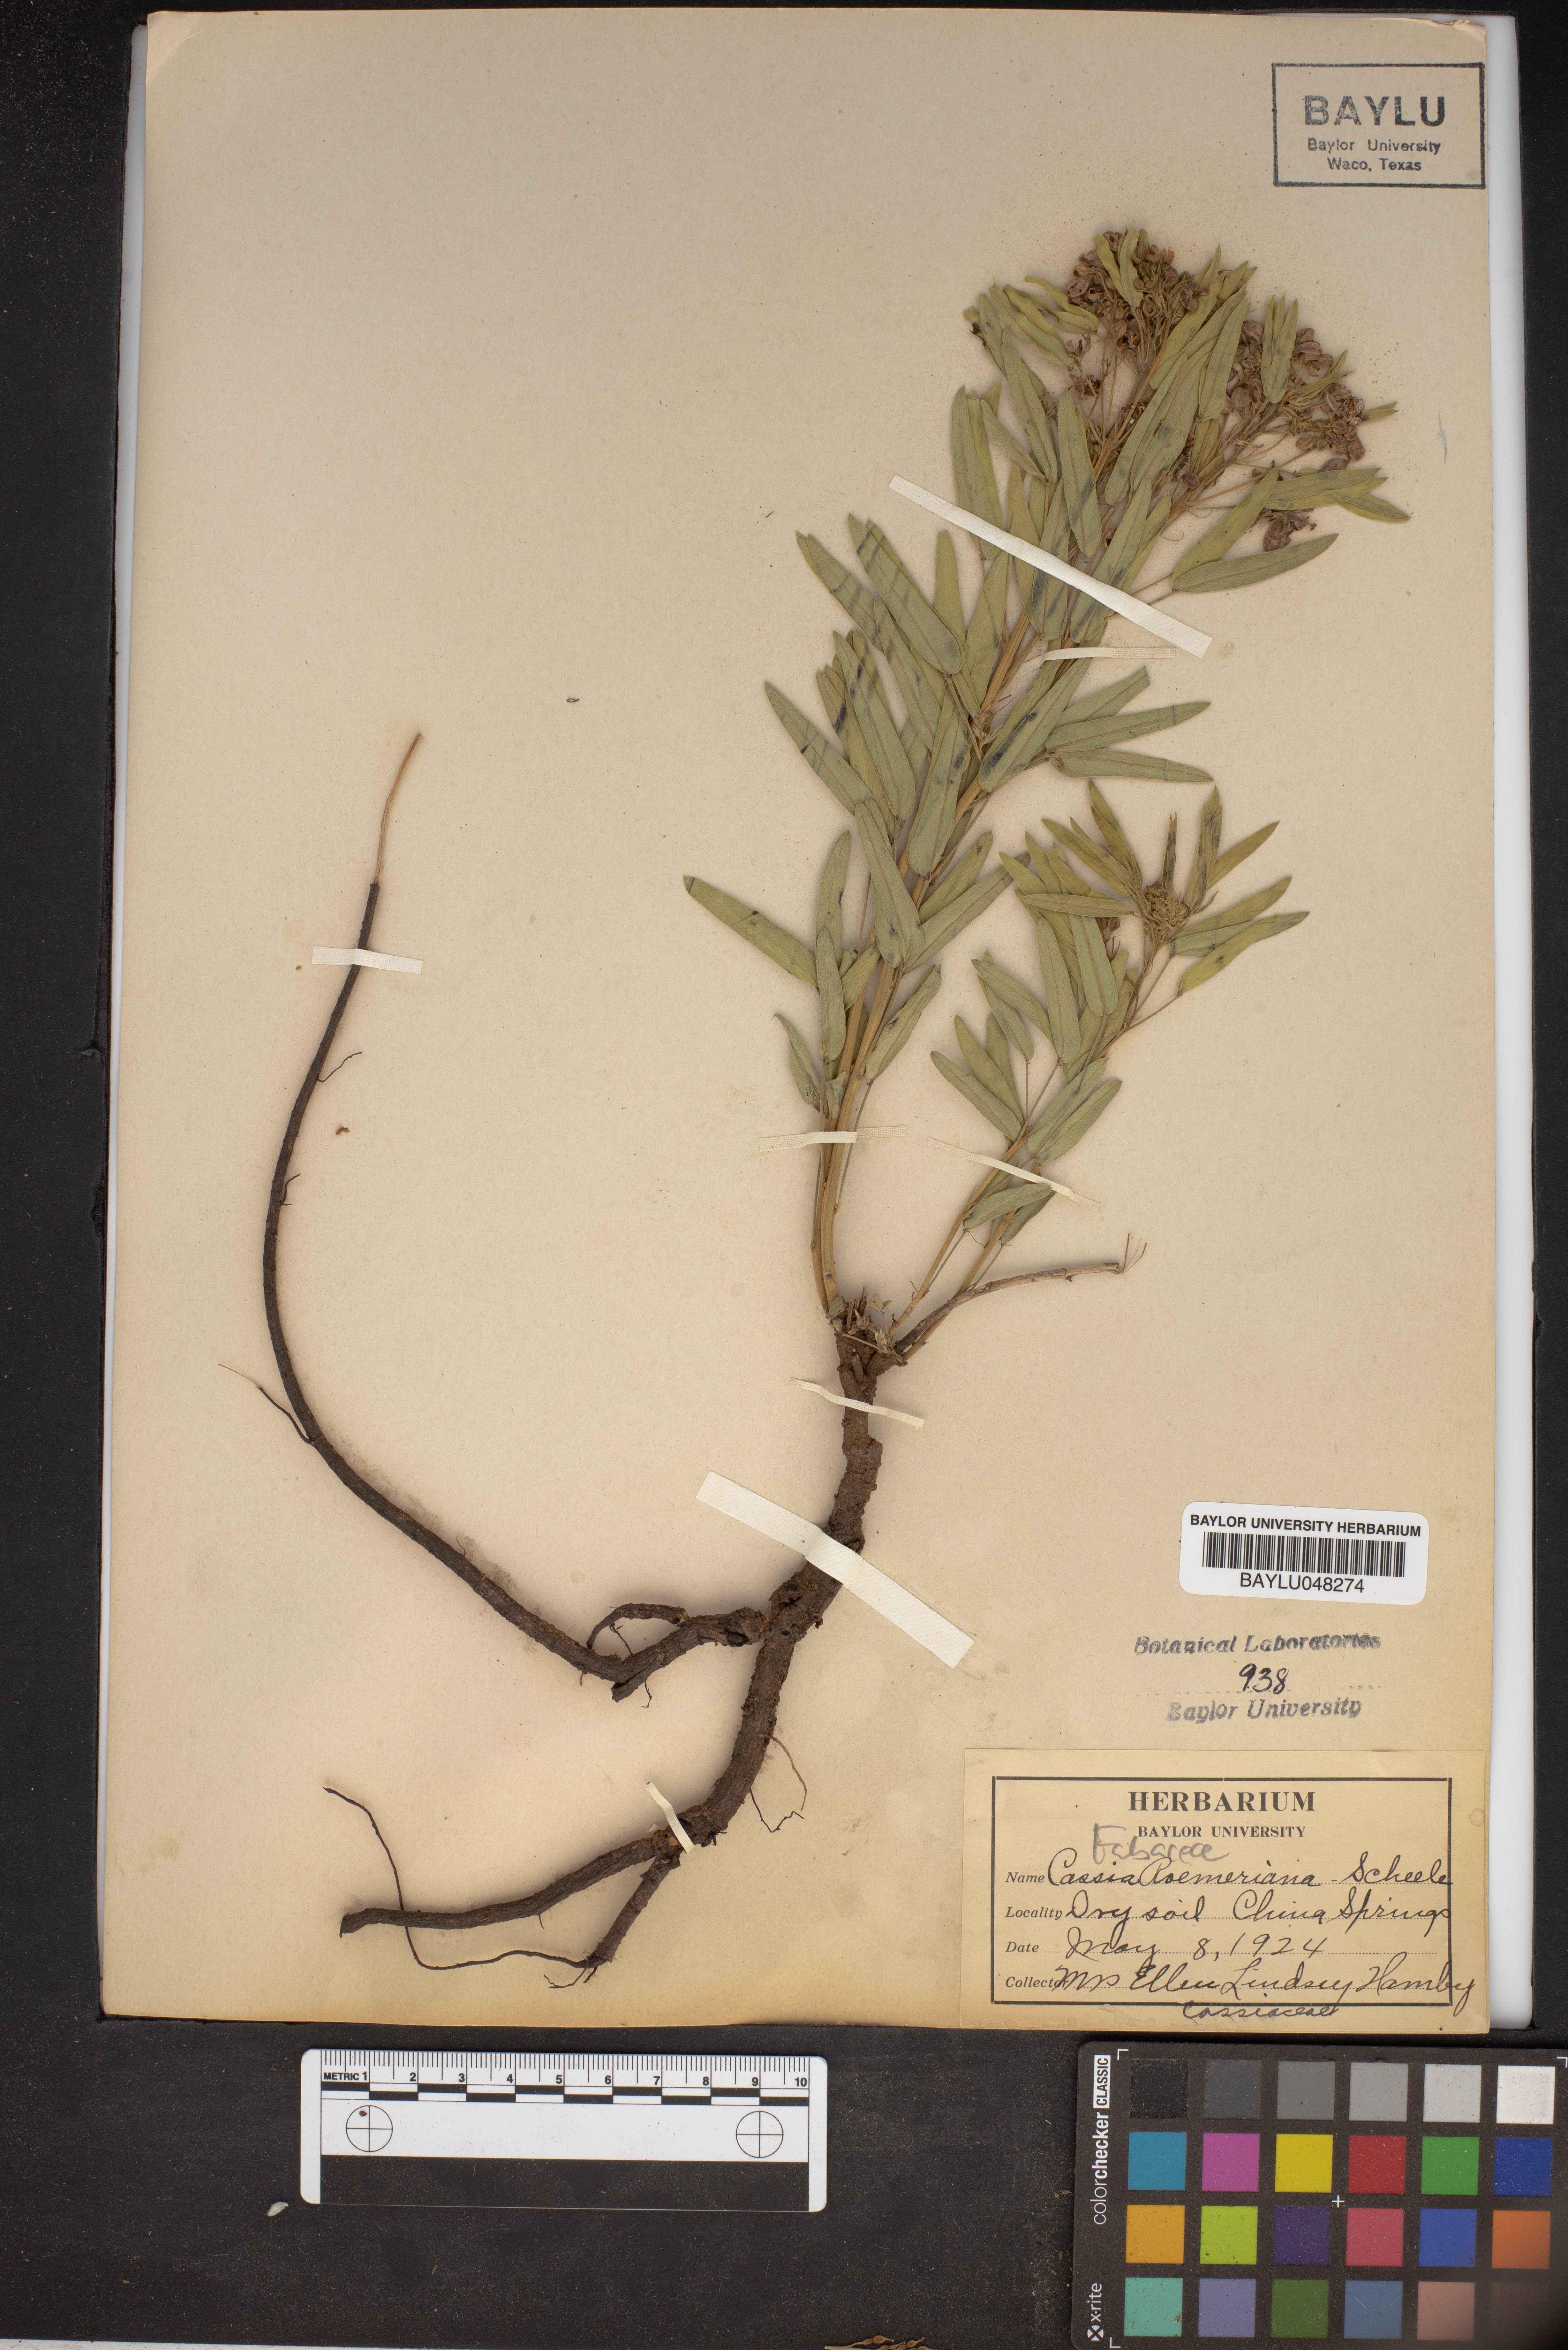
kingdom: Plantae
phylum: Tracheophyta
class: Magnoliopsida
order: Fabales
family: Fabaceae
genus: Senna
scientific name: Senna roemeriana
